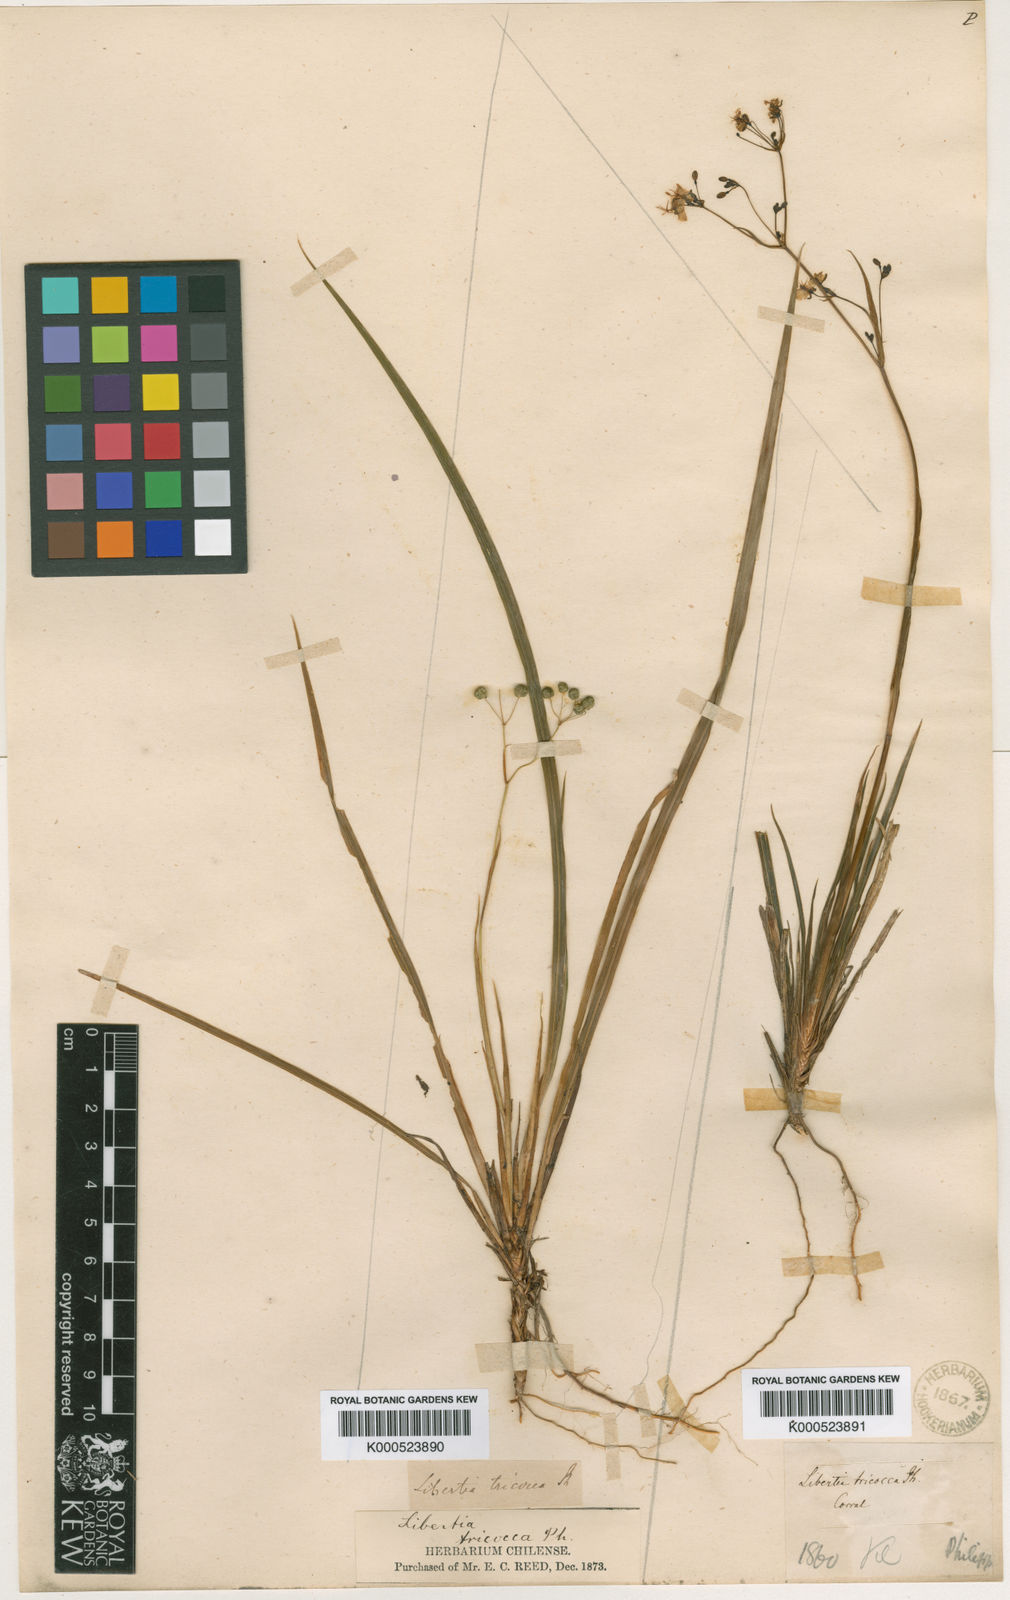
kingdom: Plantae
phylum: Tracheophyta
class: Liliopsida
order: Asparagales
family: Iridaceae
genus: Libertia
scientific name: Libertia tricocca
